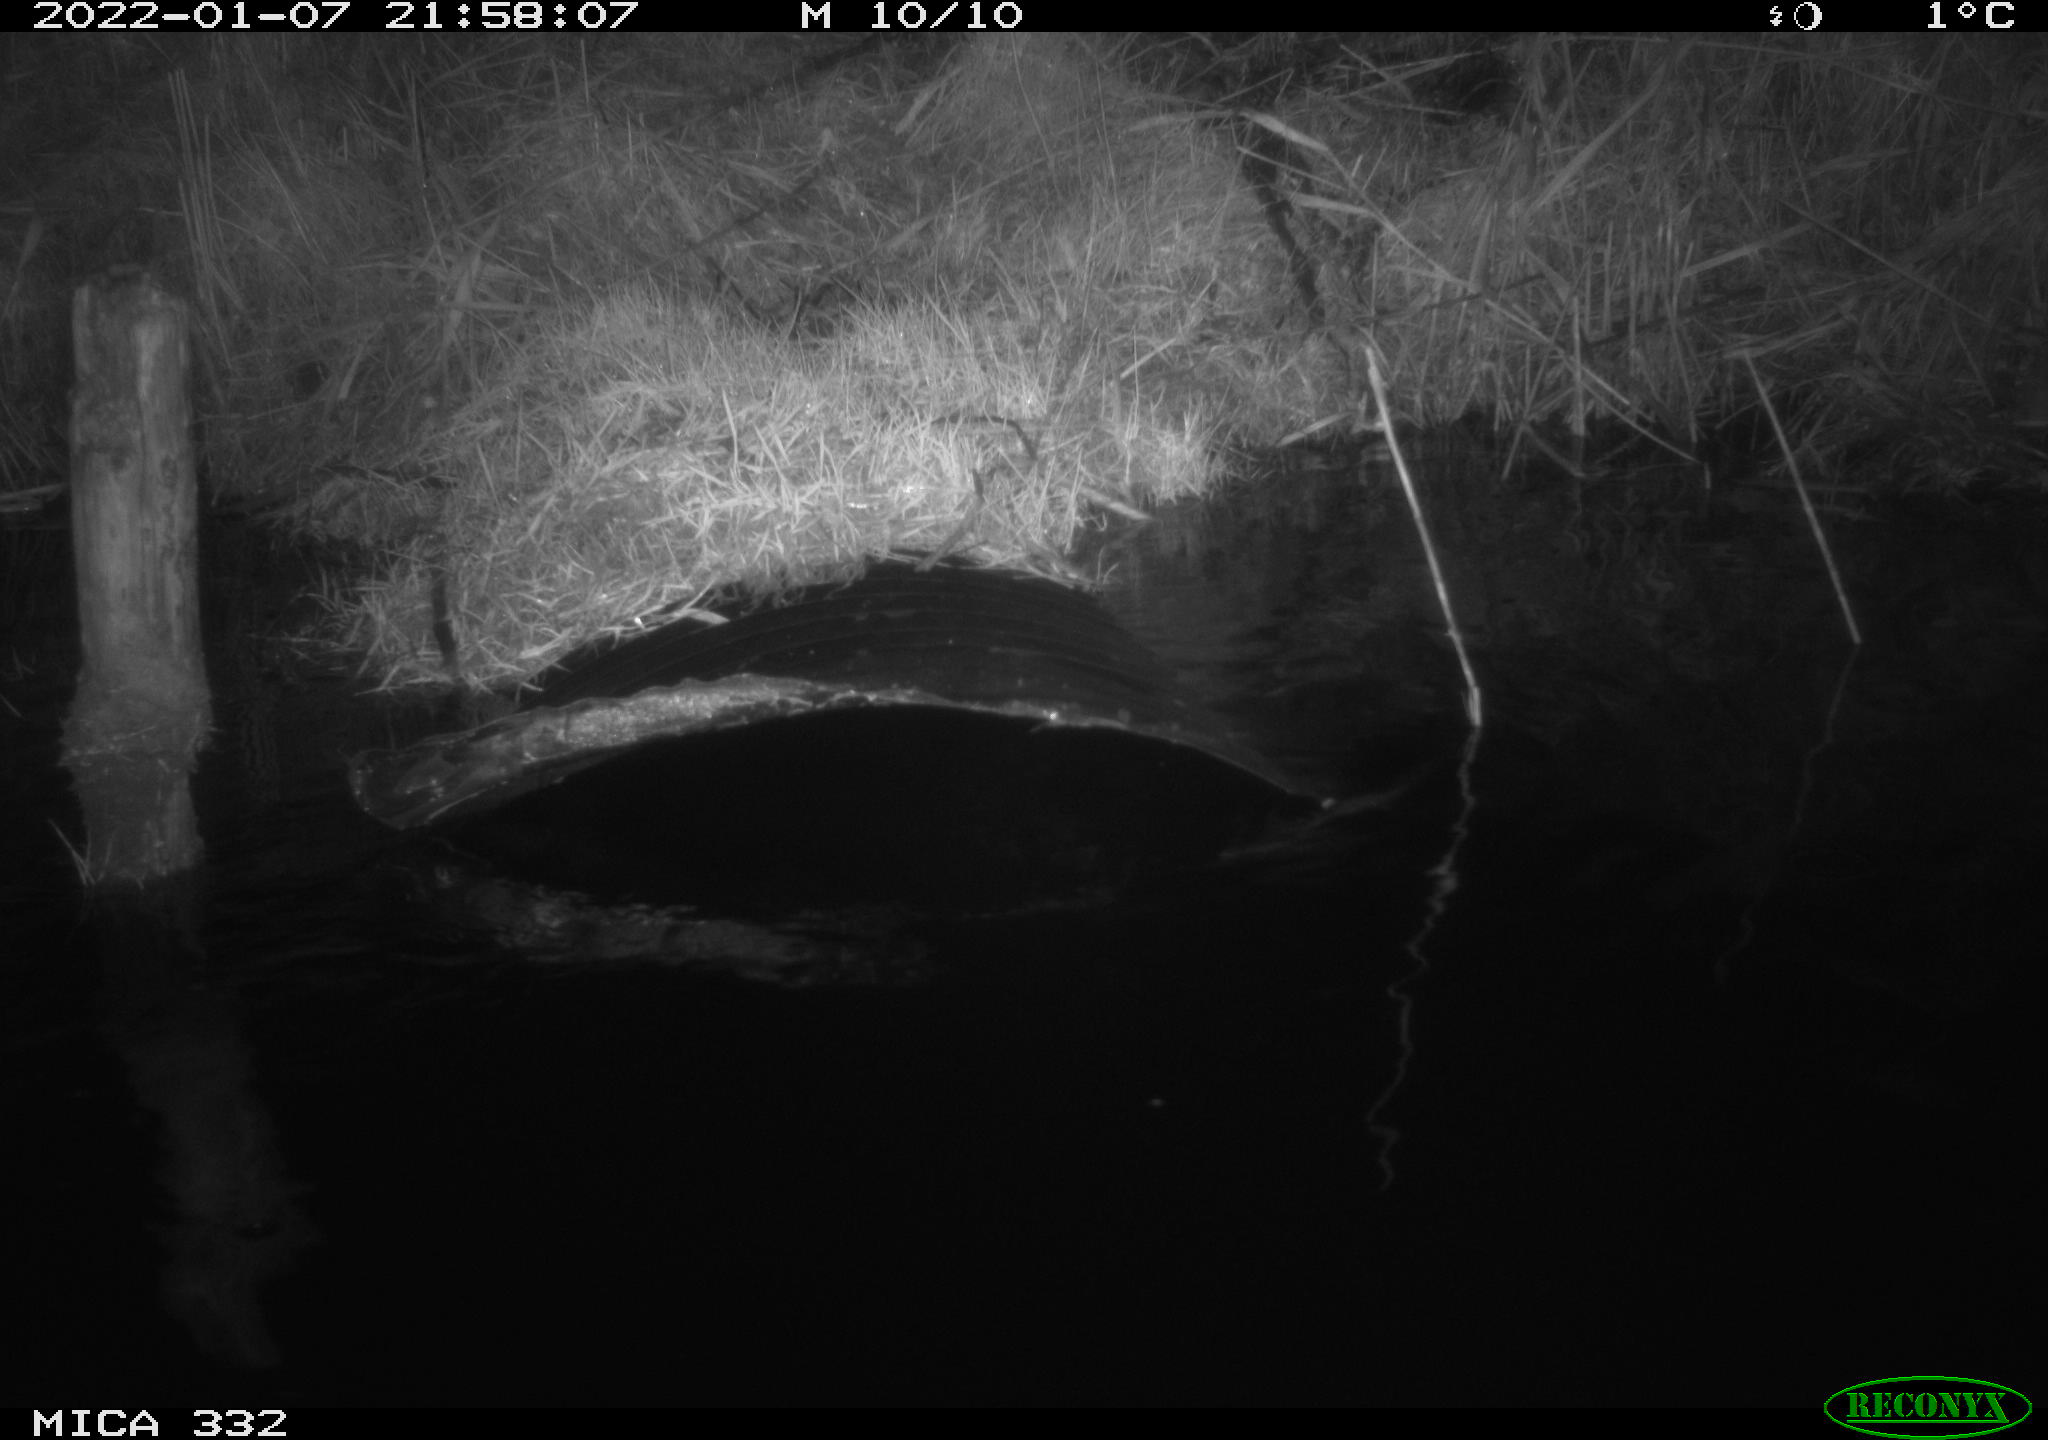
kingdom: Animalia
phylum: Chordata
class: Mammalia
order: Carnivora
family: Mustelidae
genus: Lutra
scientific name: Lutra lutra
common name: European otter
